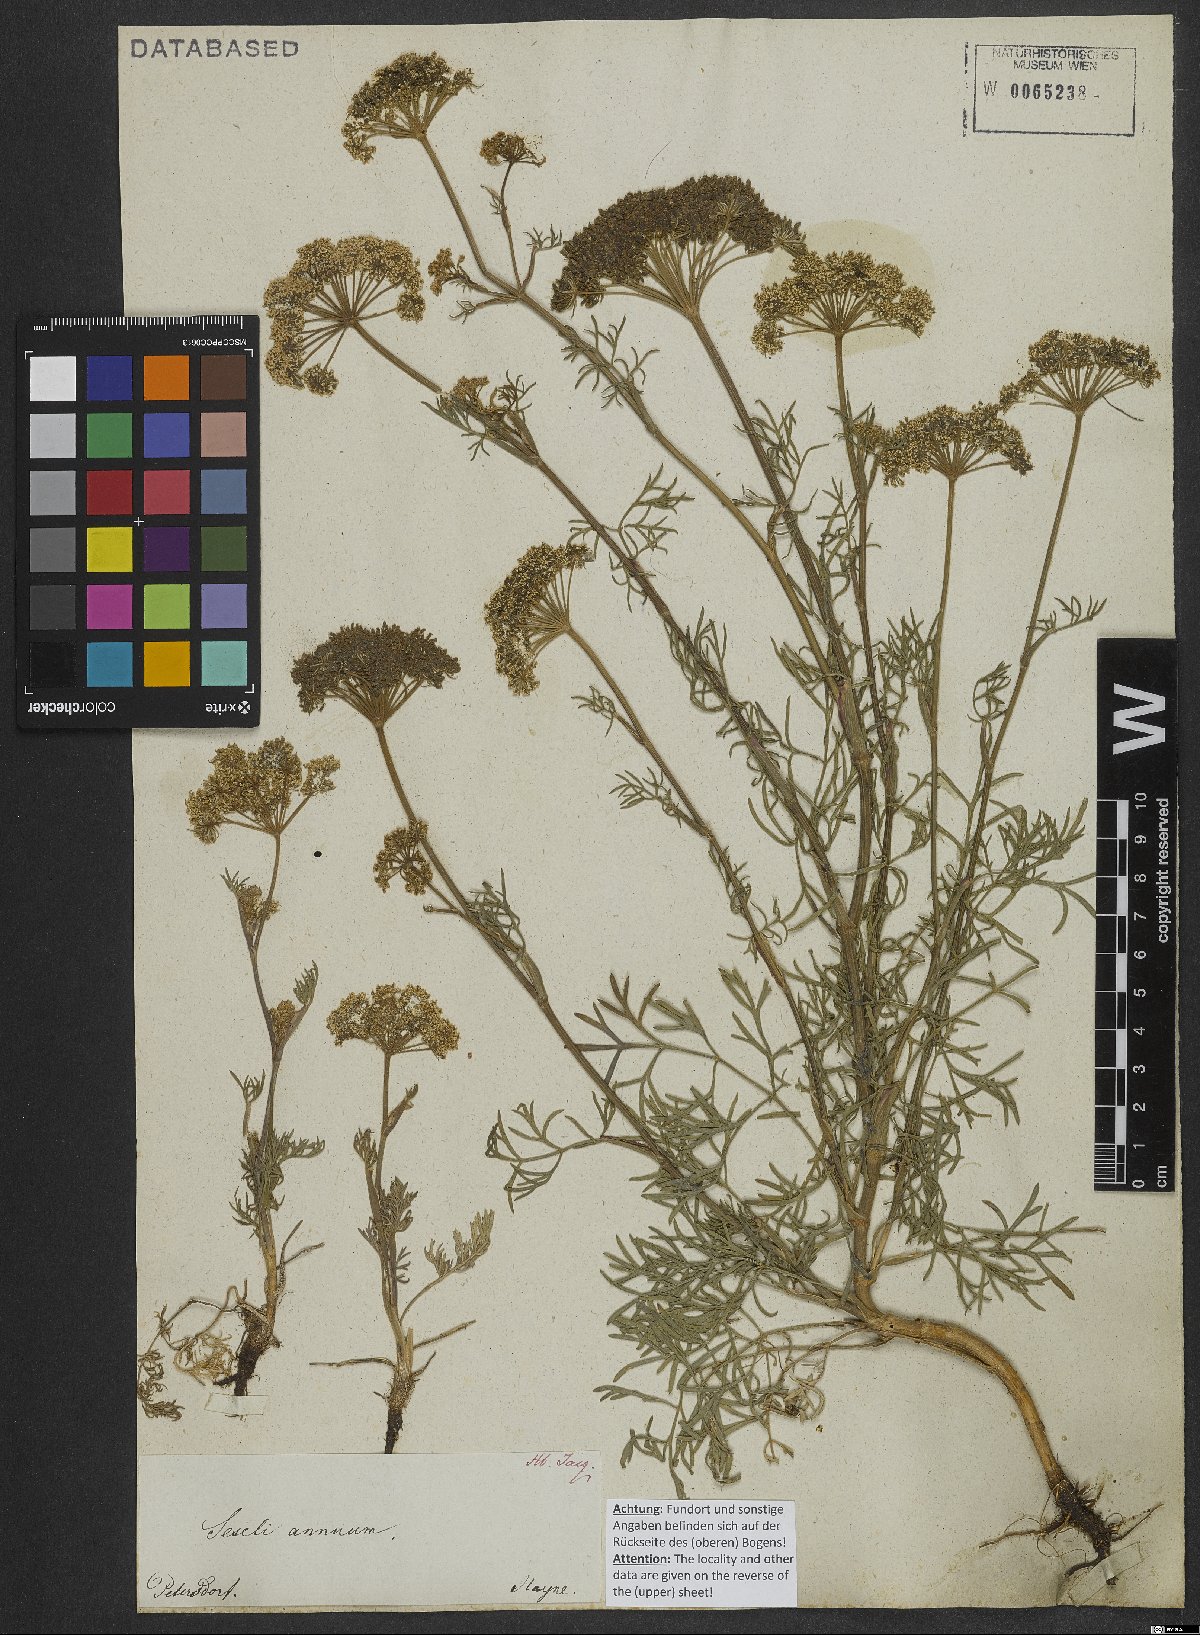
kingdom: Plantae
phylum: Tracheophyta
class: Magnoliopsida
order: Apiales
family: Apiaceae
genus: Seseli
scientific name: Seseli annuum
